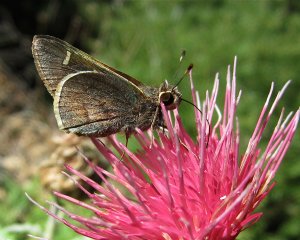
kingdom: Animalia
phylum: Arthropoda
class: Insecta
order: Lepidoptera
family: Hesperiidae
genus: Atrytonopsis
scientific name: Atrytonopsis lunus
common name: Moon-marked Skipper
